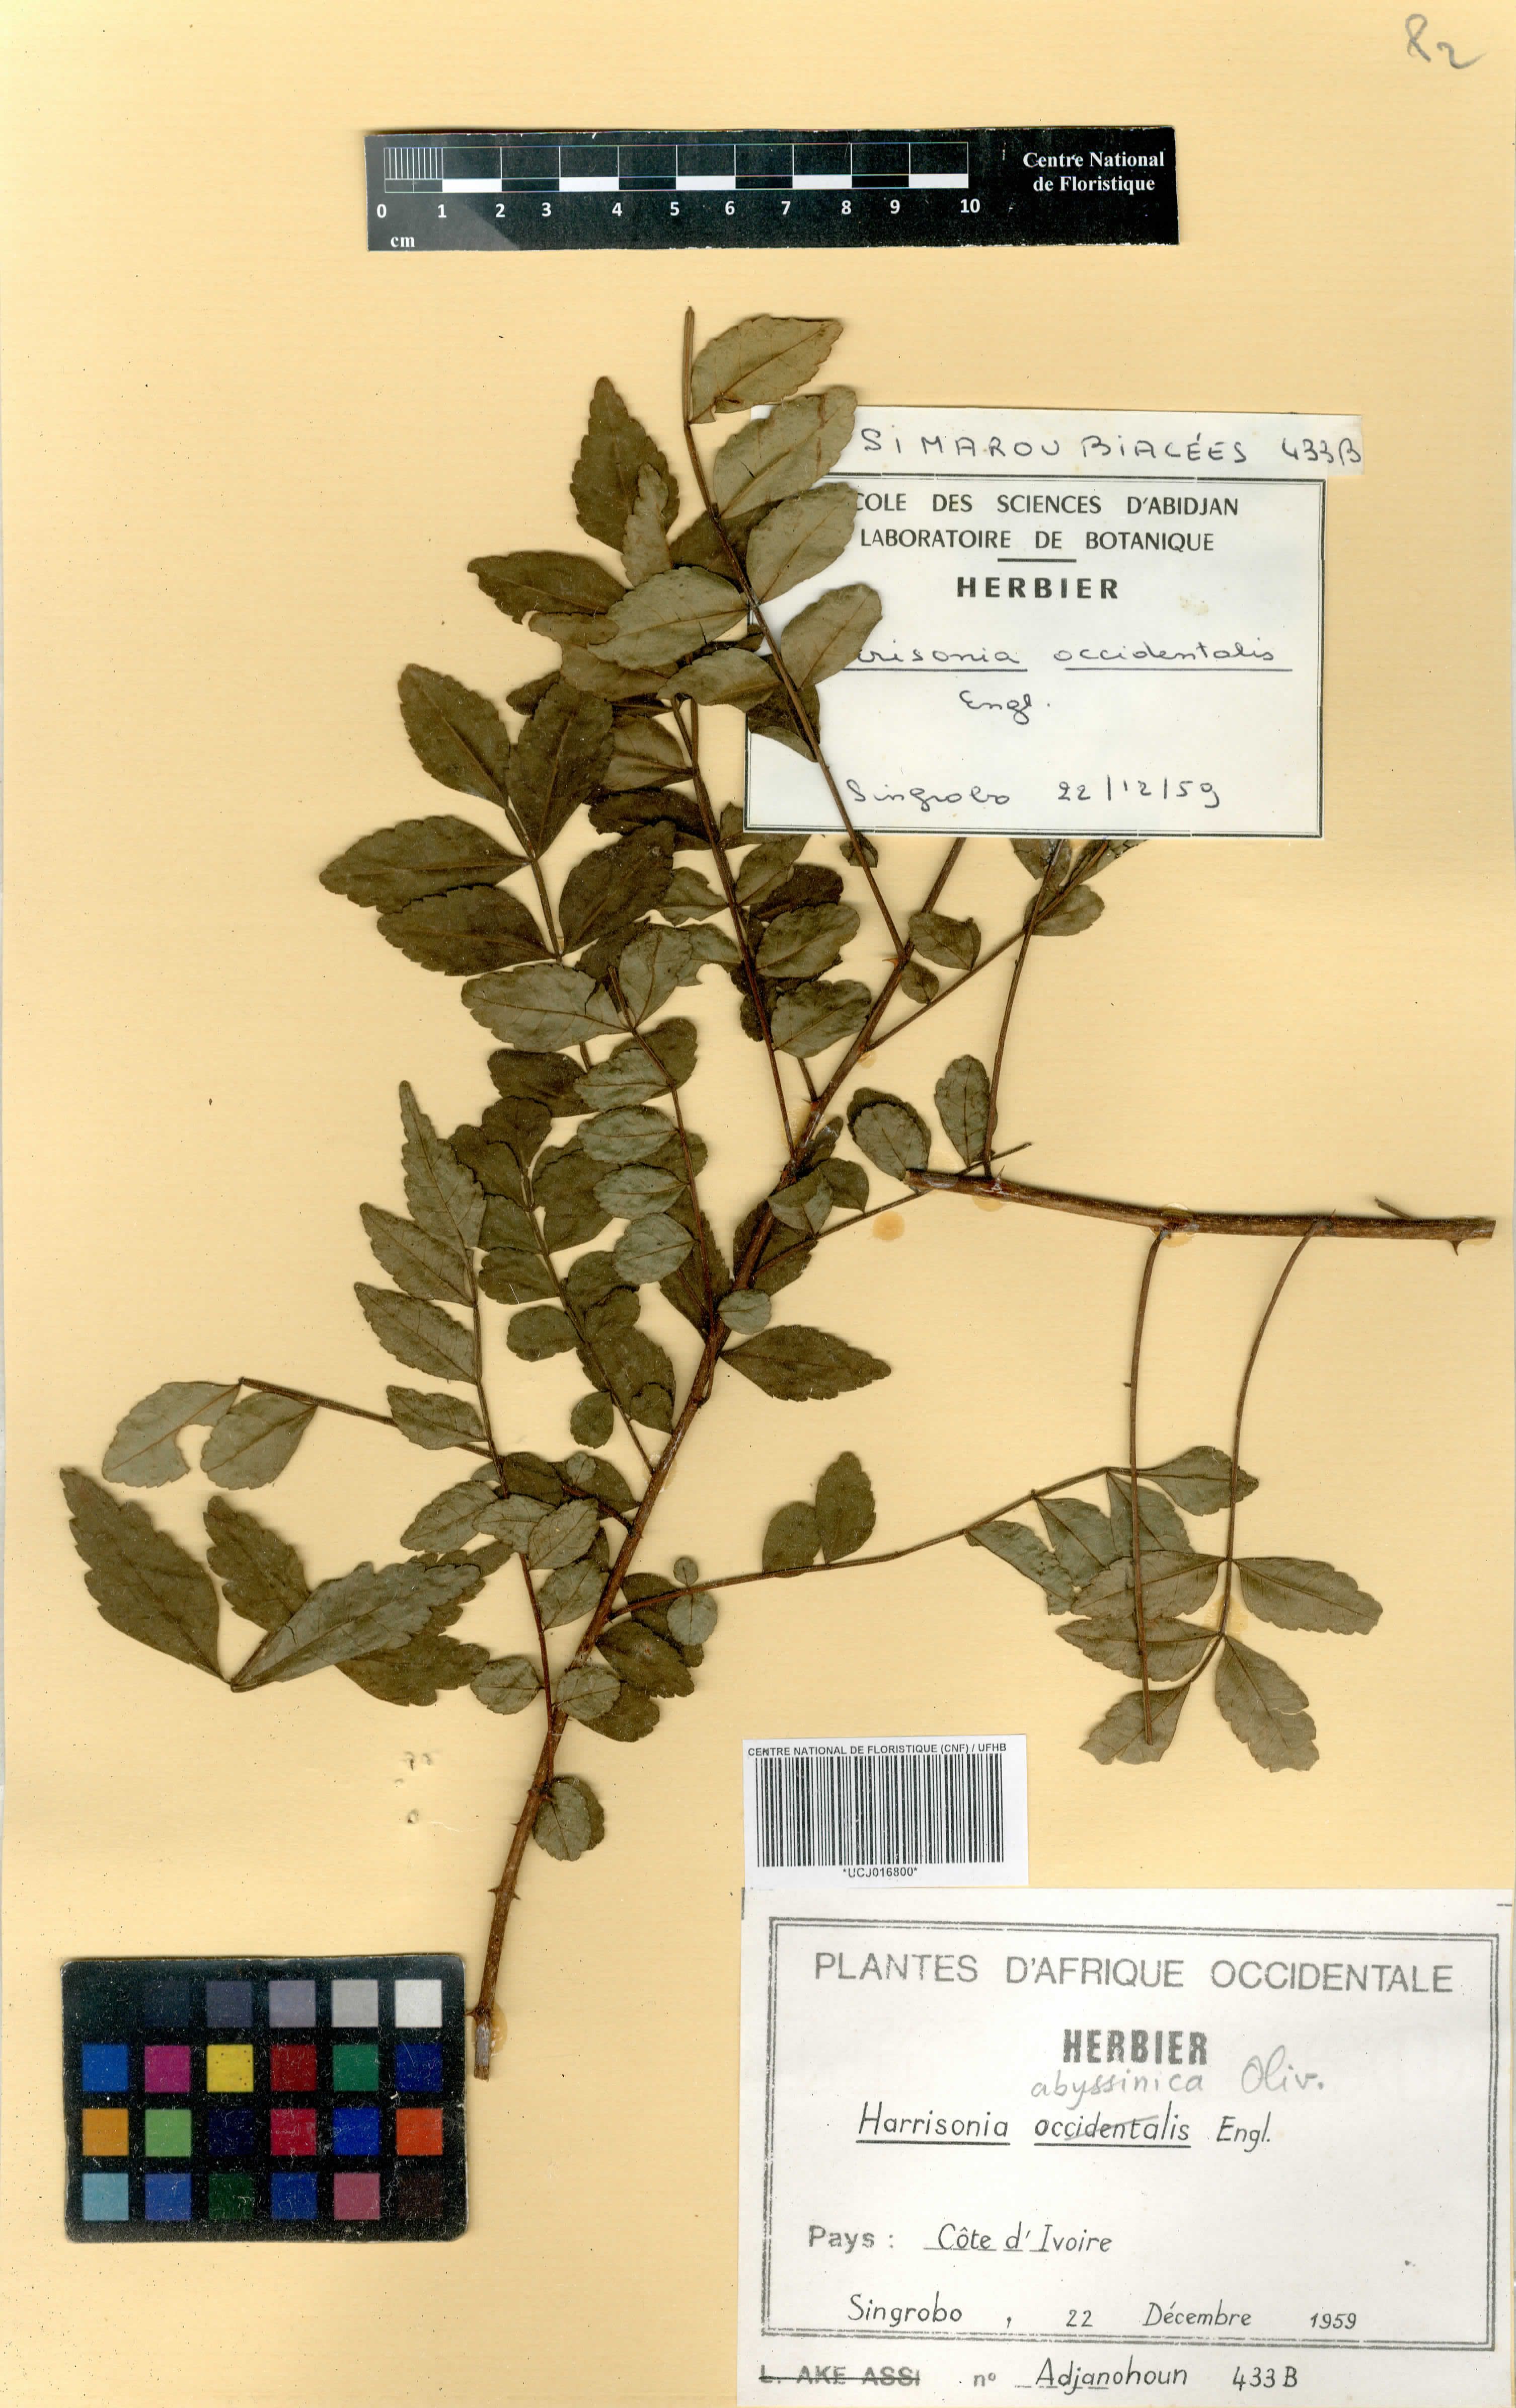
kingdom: Plantae
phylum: Tracheophyta
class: Magnoliopsida
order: Sapindales
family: Rutaceae
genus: Harrisonia
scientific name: Harrisonia abyssinica
